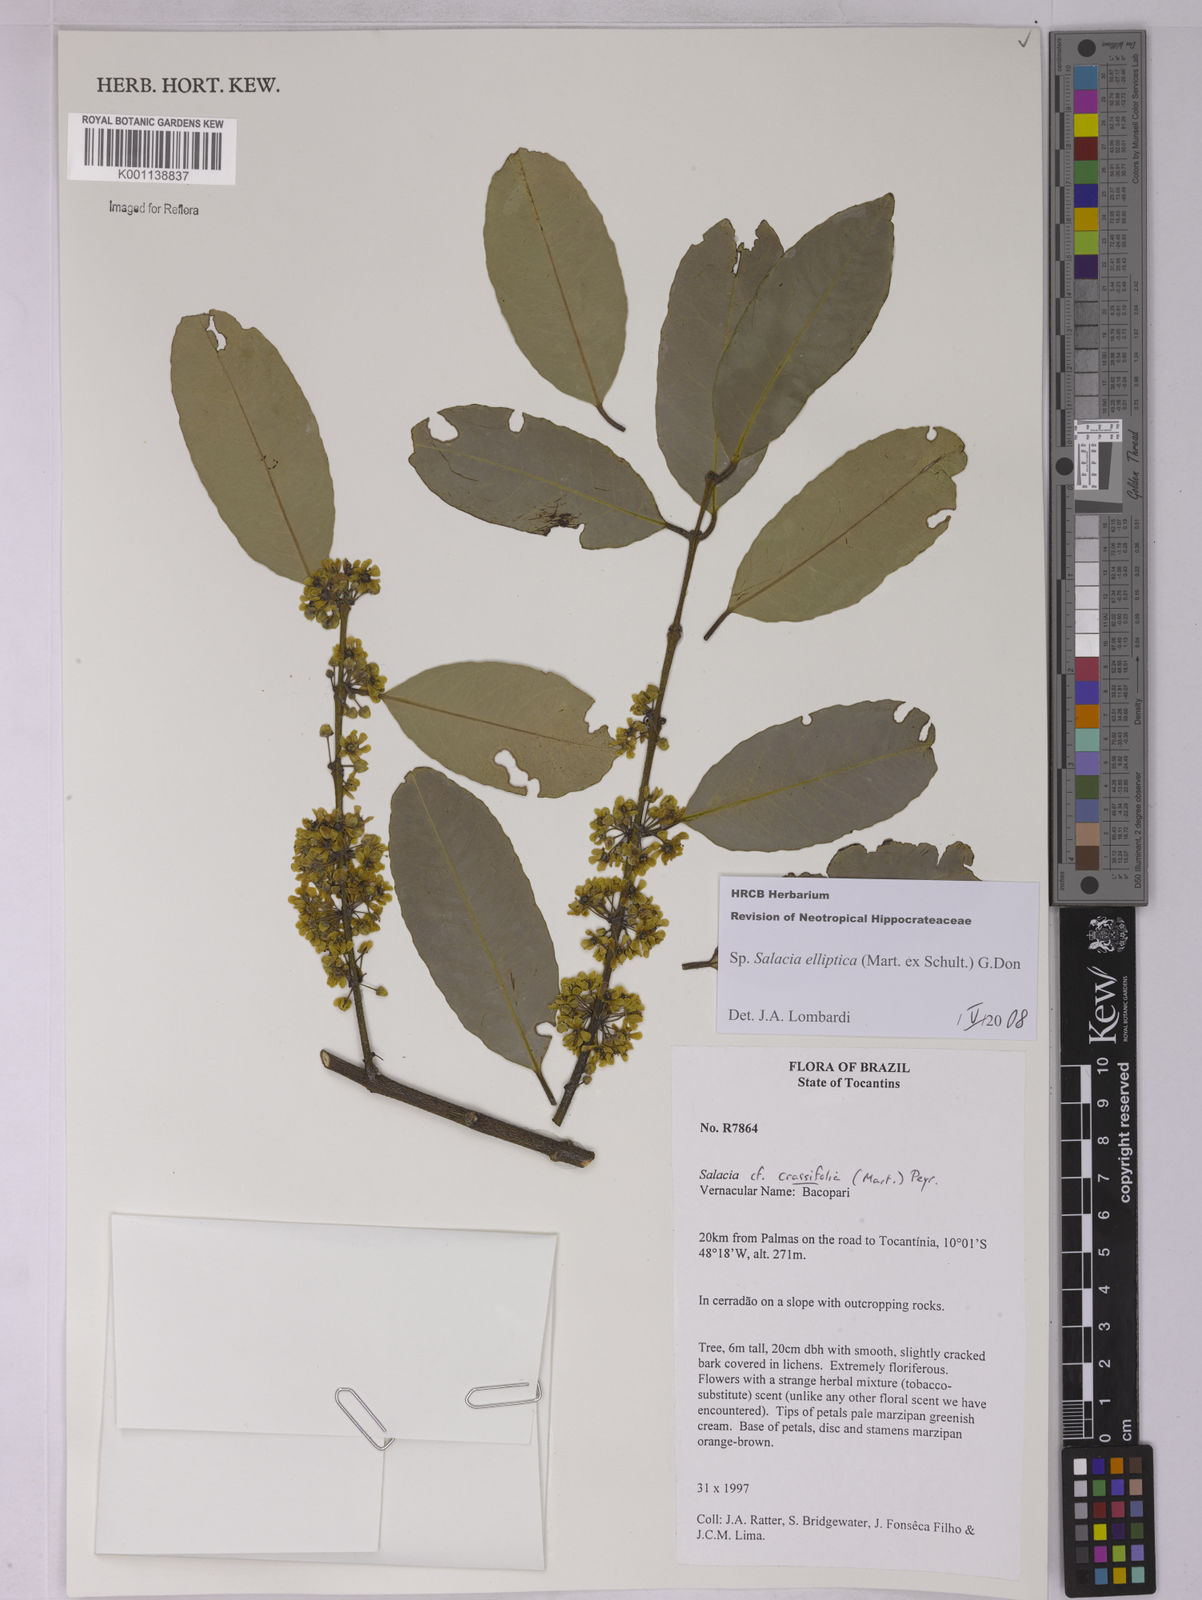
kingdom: Plantae
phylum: Tracheophyta
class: Magnoliopsida
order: Celastrales
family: Celastraceae
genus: Salacia
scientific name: Salacia elliptica
